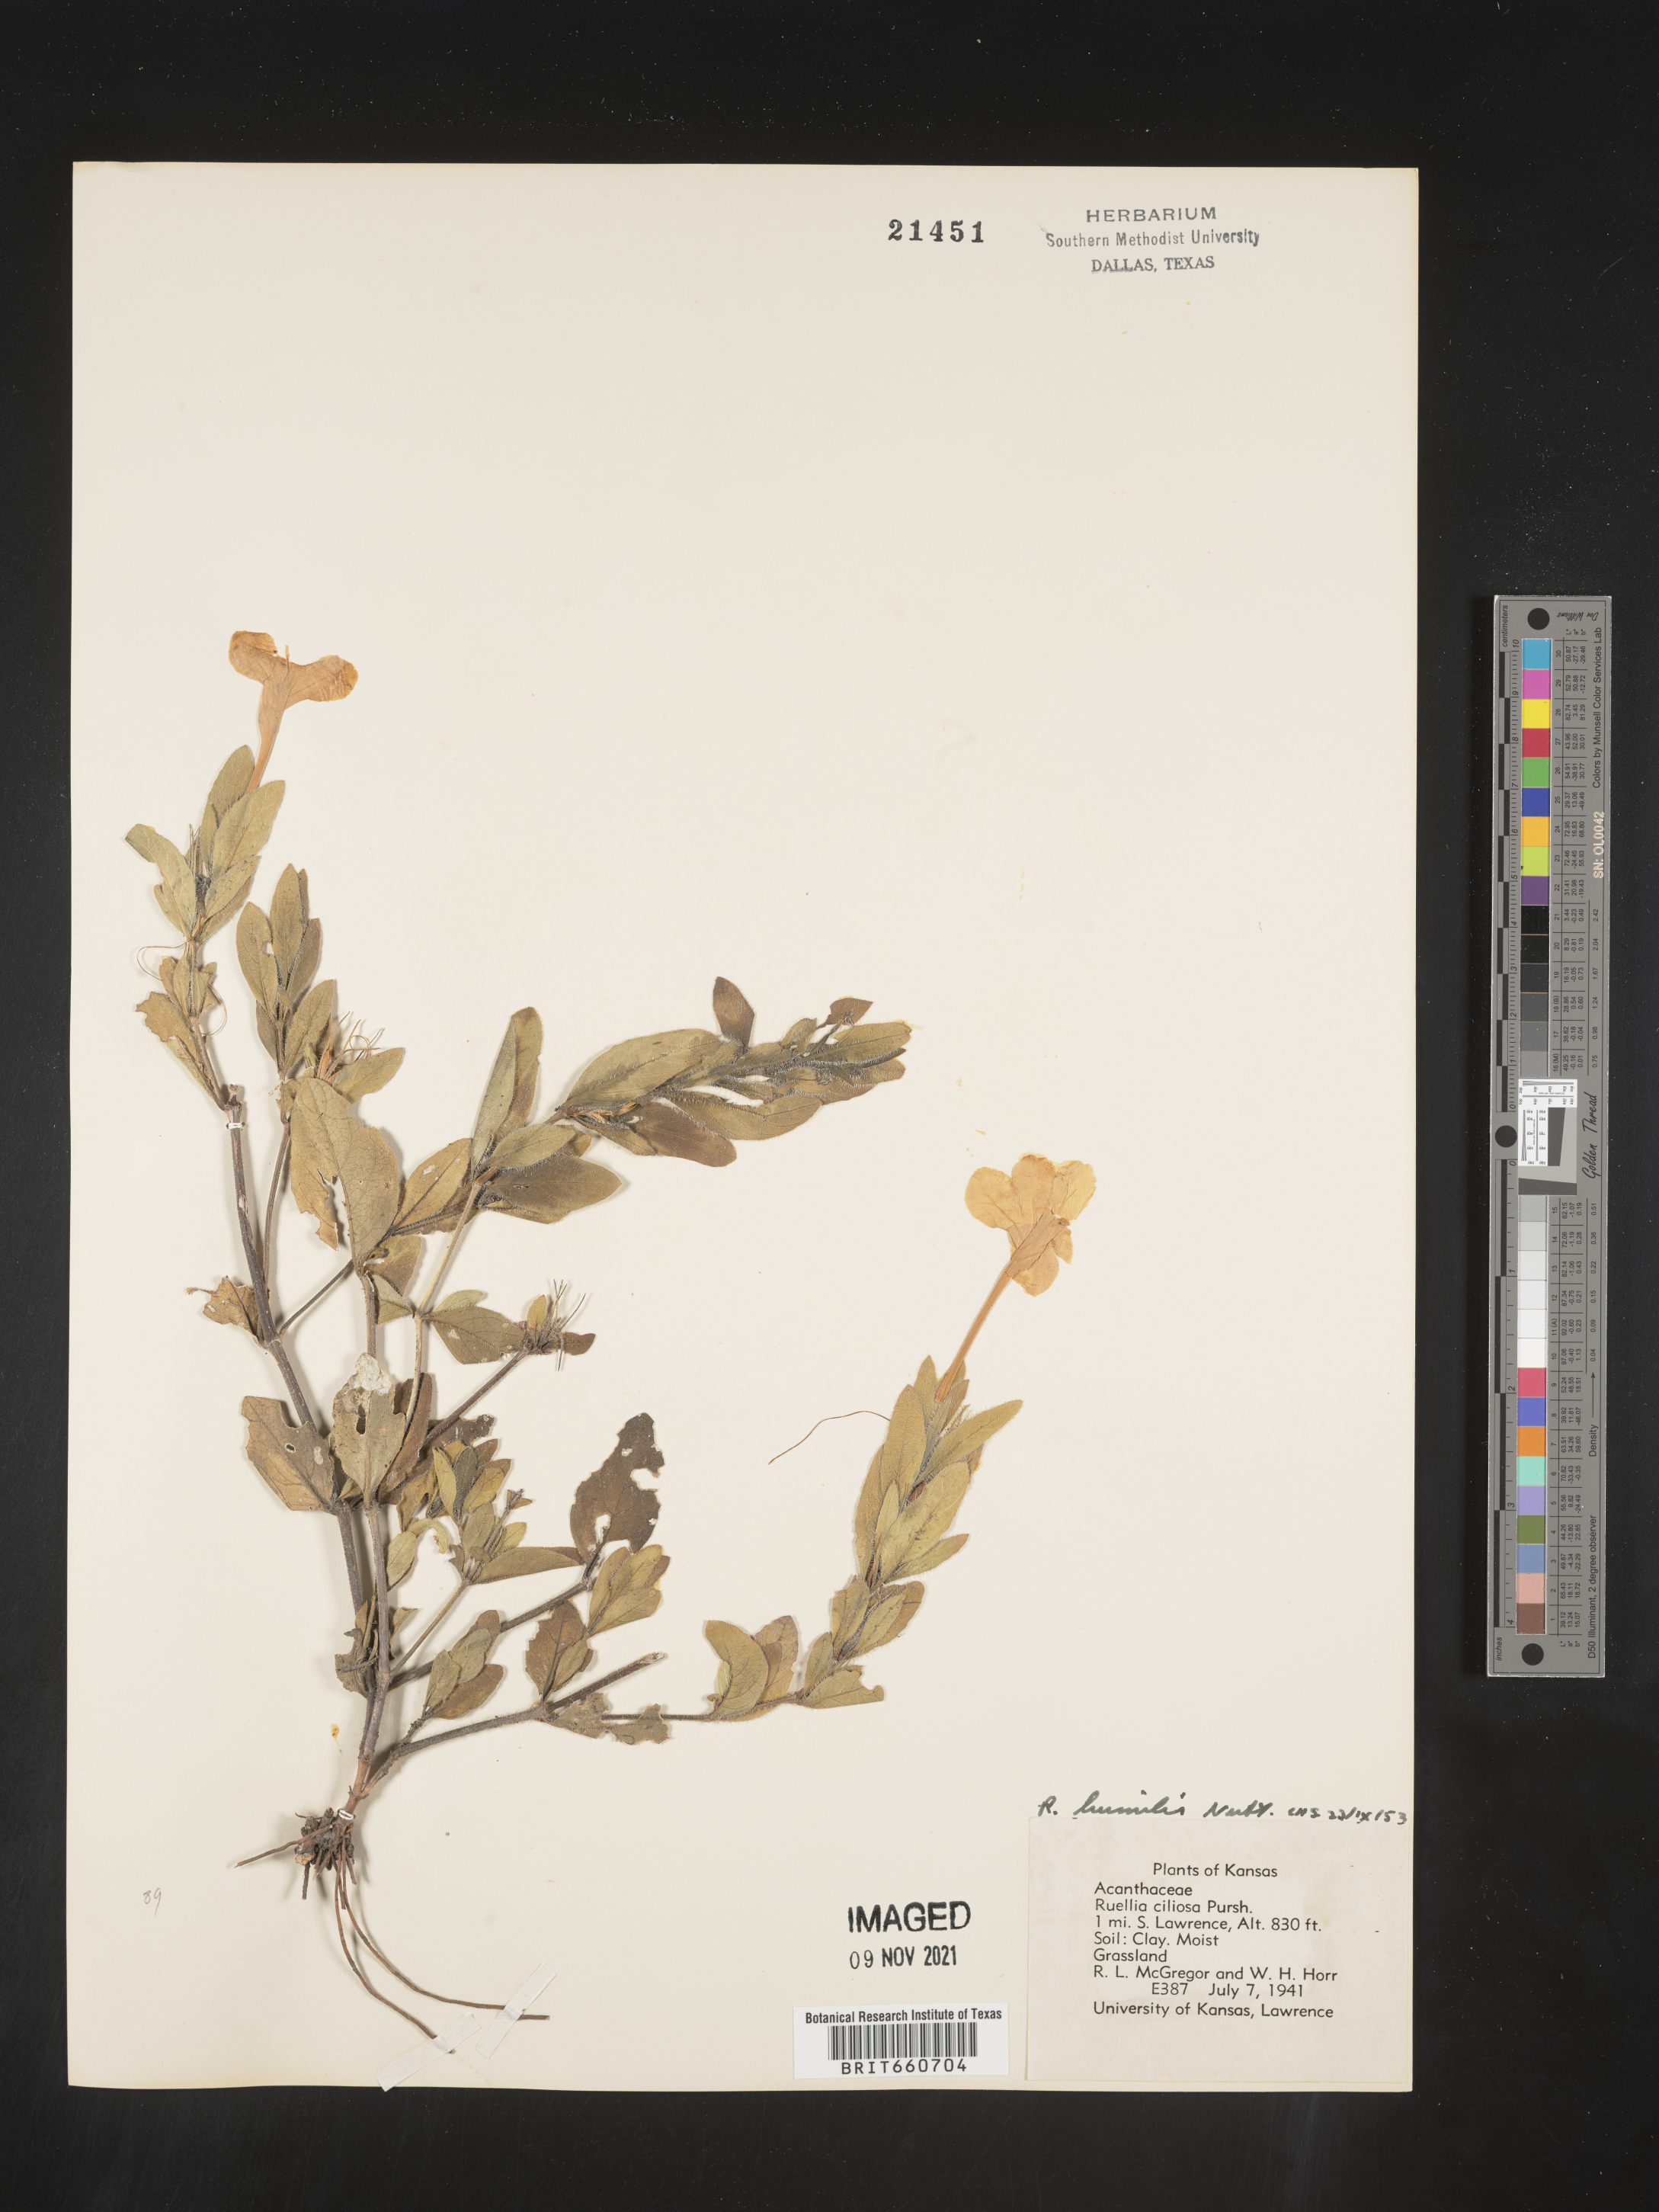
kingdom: Plantae
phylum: Tracheophyta
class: Magnoliopsida
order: Lamiales
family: Acanthaceae
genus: Ruellia
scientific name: Ruellia humilis
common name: Fringe-leaf ruellia
